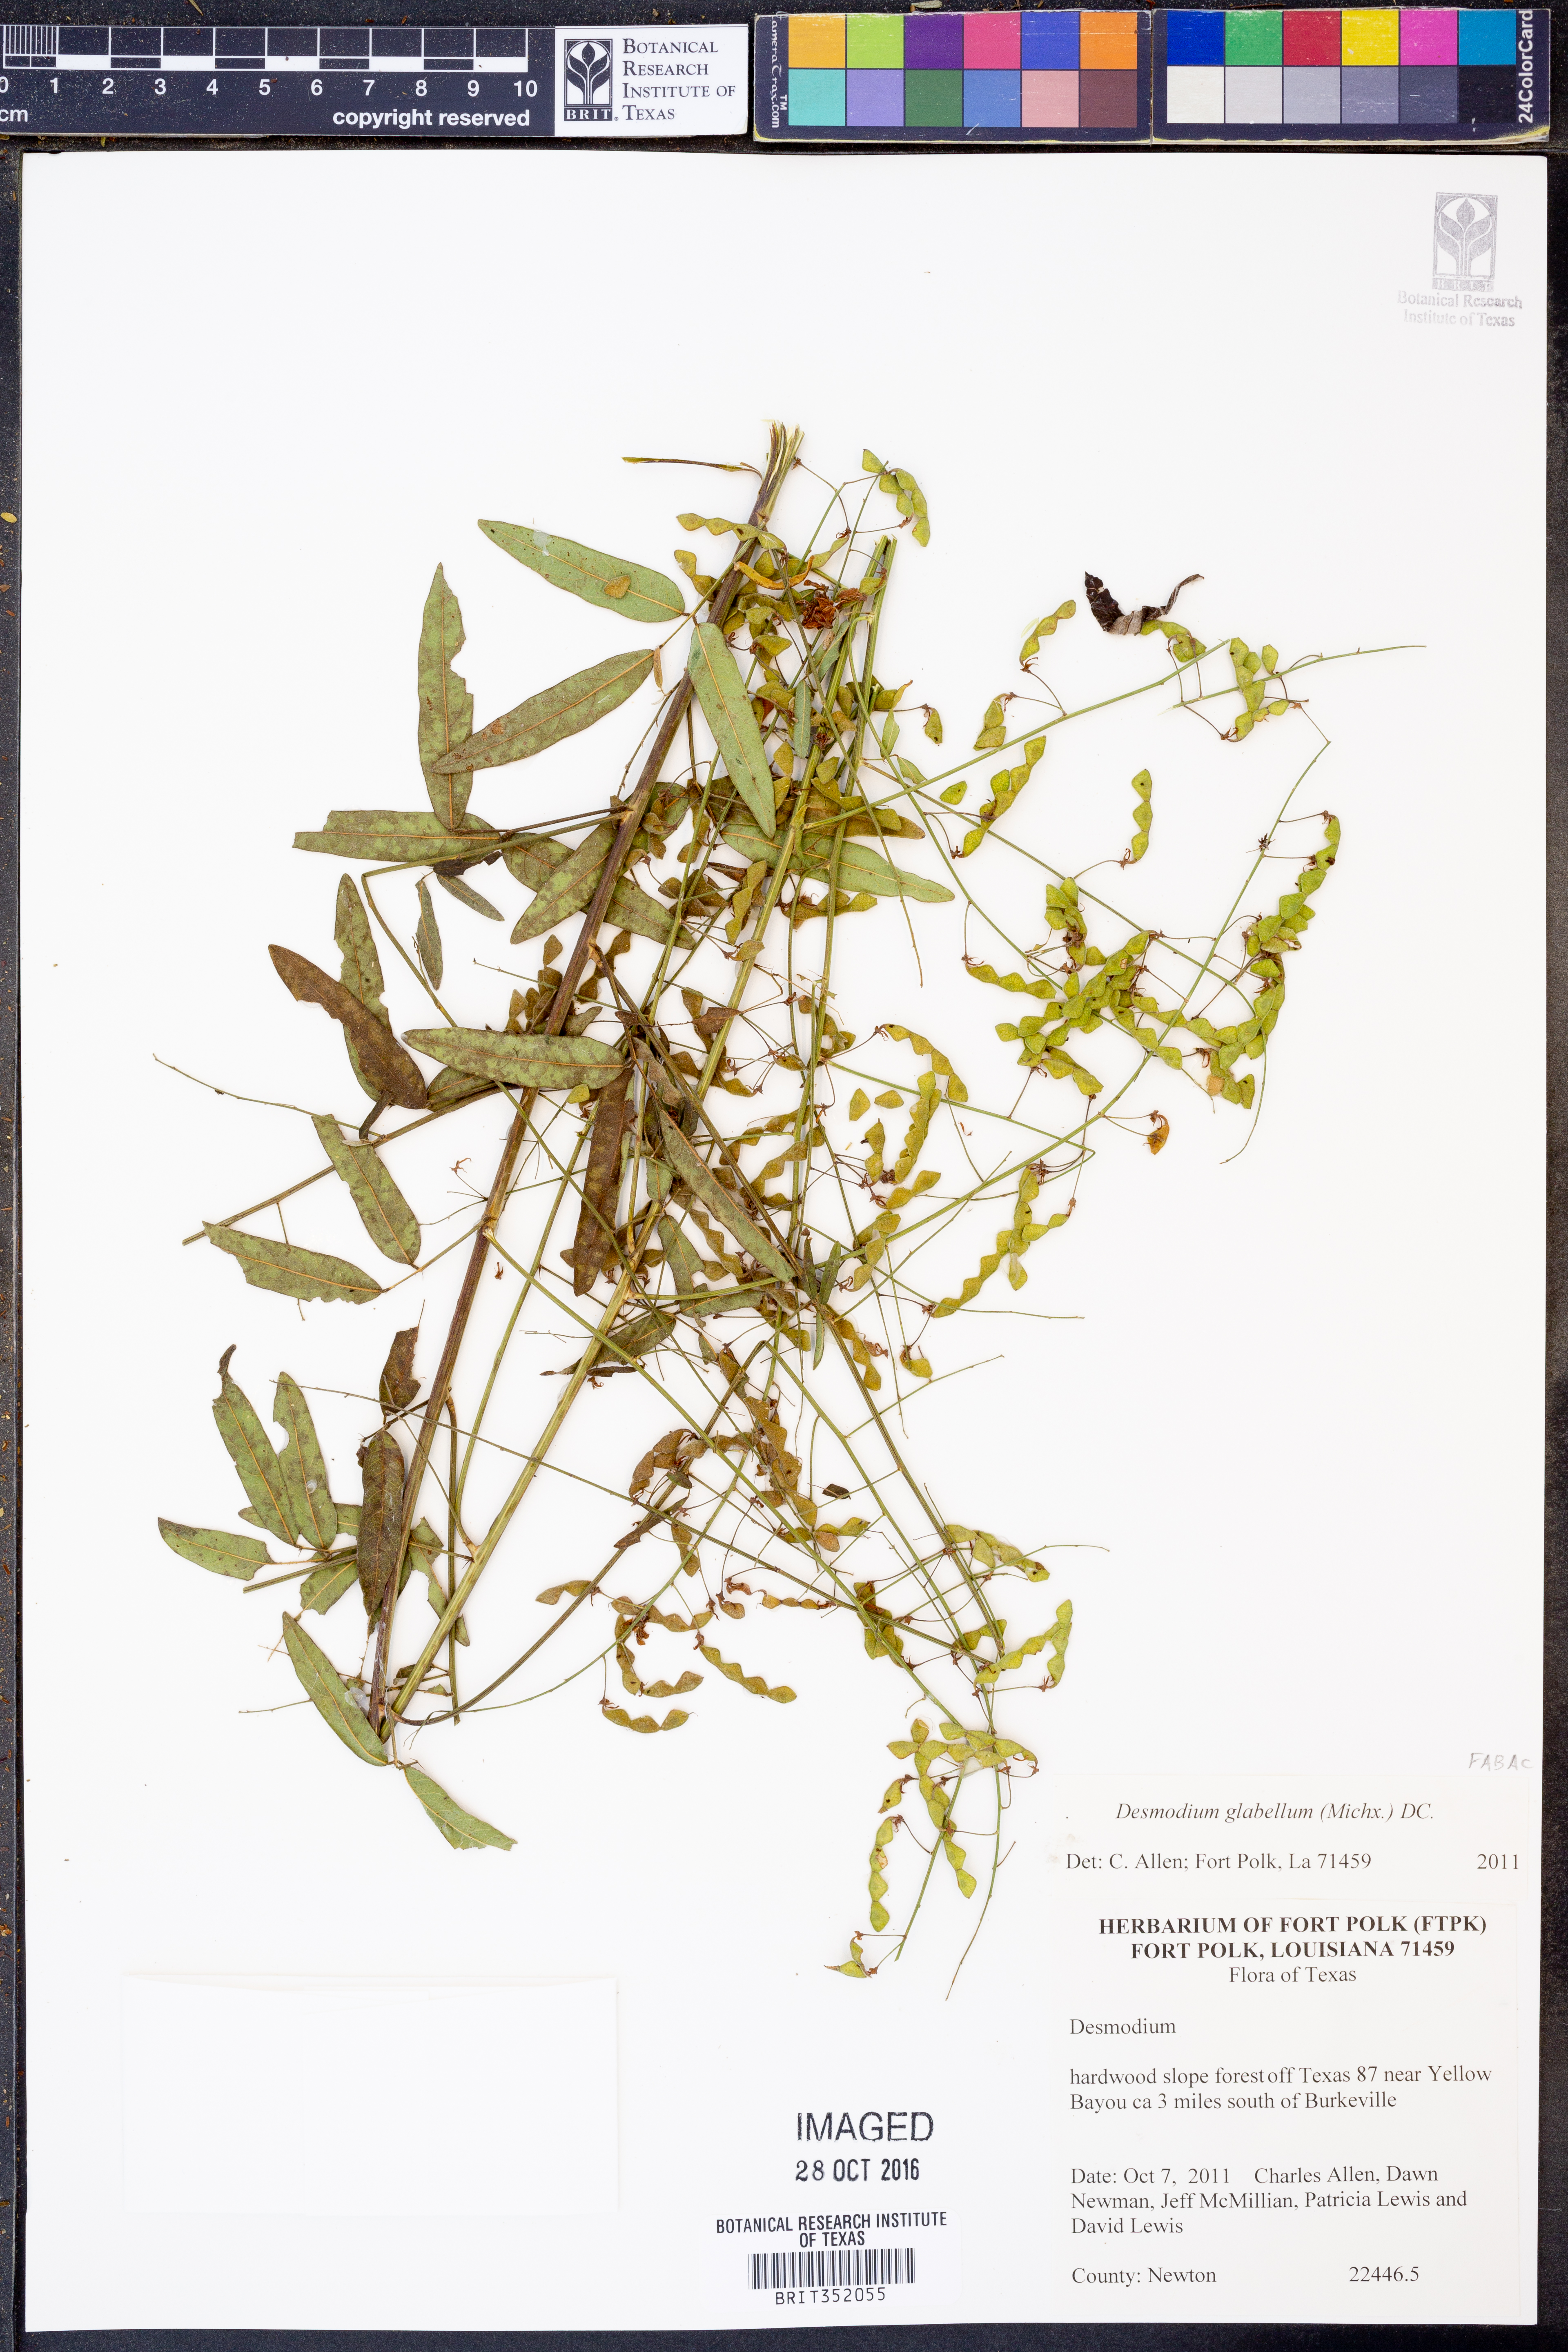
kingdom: Plantae
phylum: Tracheophyta
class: Magnoliopsida
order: Fabales
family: Fabaceae
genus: Desmodium
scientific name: Desmodium glabellum
